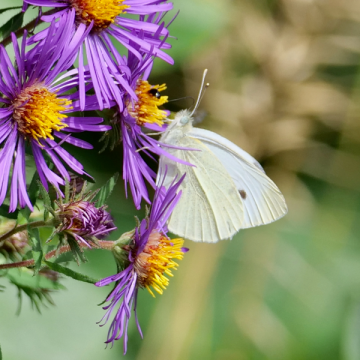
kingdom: Animalia
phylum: Arthropoda
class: Insecta
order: Lepidoptera
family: Pieridae
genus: Pieris
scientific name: Pieris rapae
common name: Cabbage White
